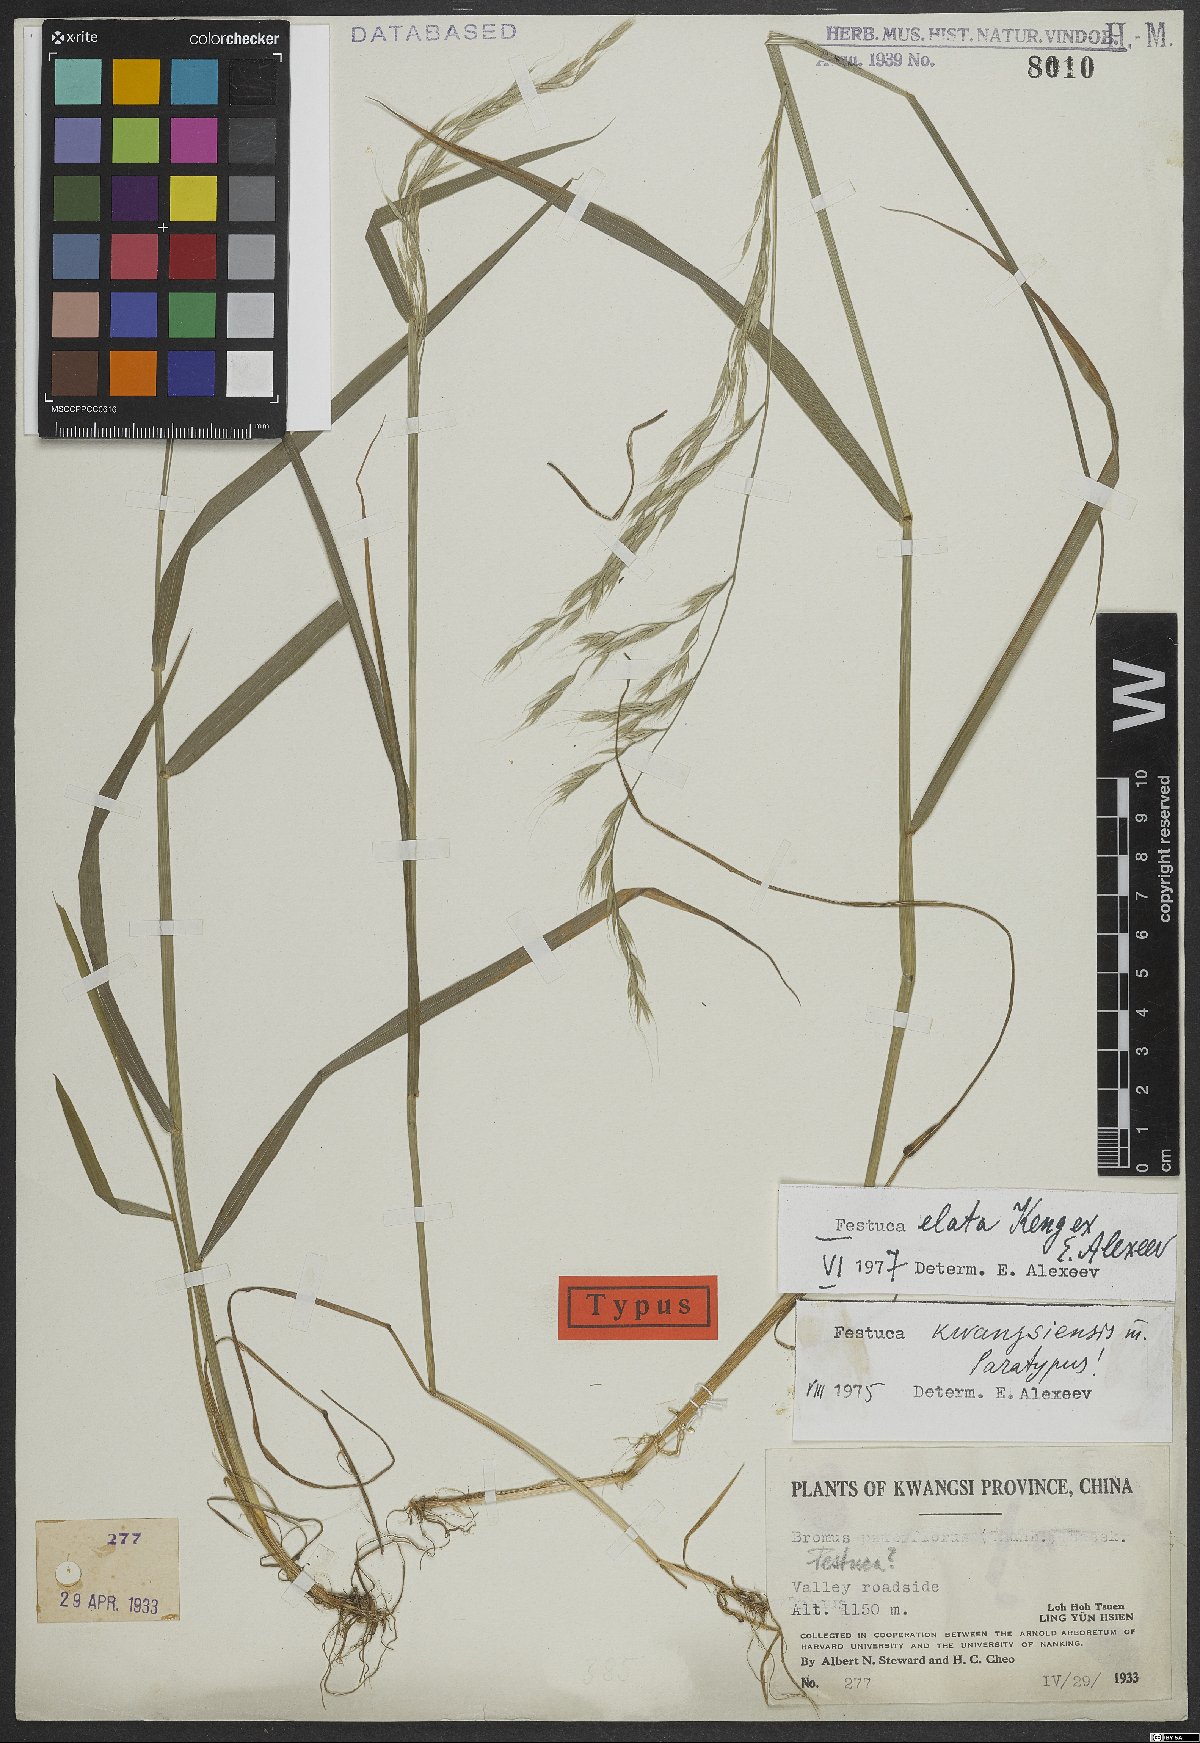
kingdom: Plantae
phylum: Tracheophyta
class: Liliopsida
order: Poales
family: Poaceae
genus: Festuca
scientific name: Festuca elata
